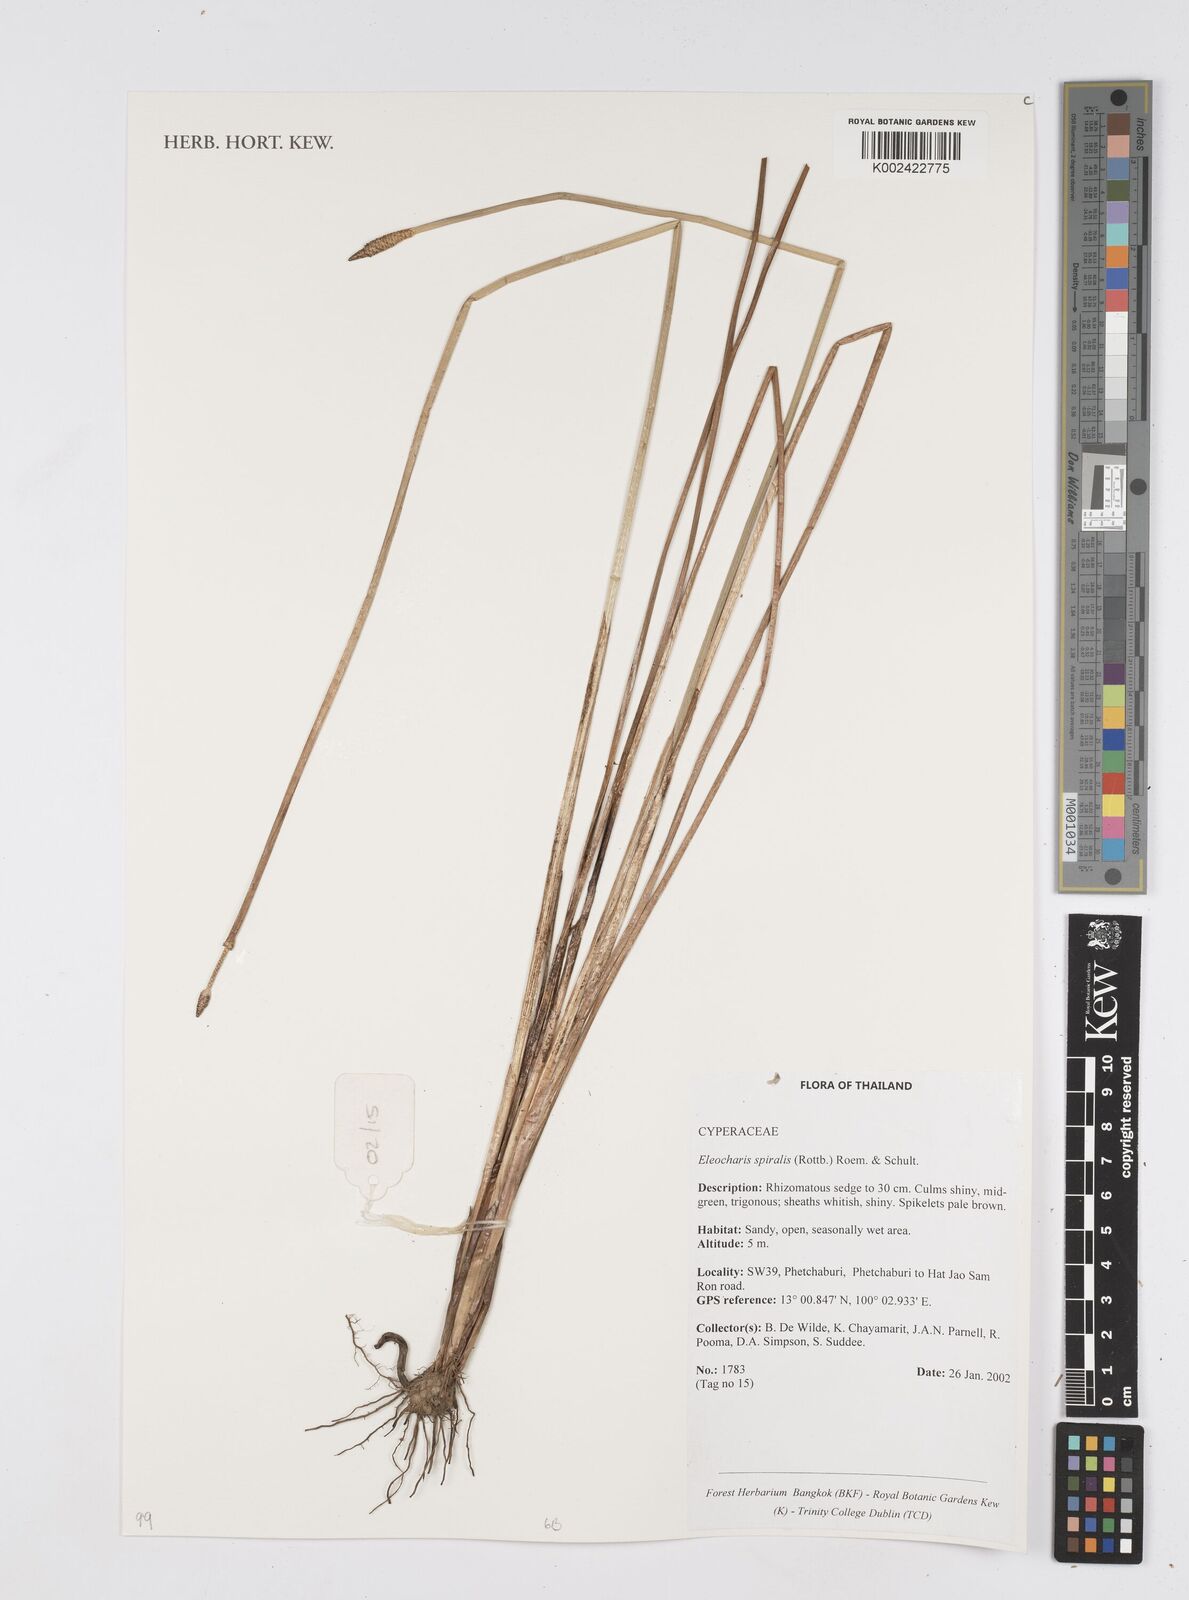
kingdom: Plantae
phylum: Tracheophyta
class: Liliopsida
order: Poales
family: Cyperaceae
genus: Eleocharis
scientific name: Eleocharis spiralis
